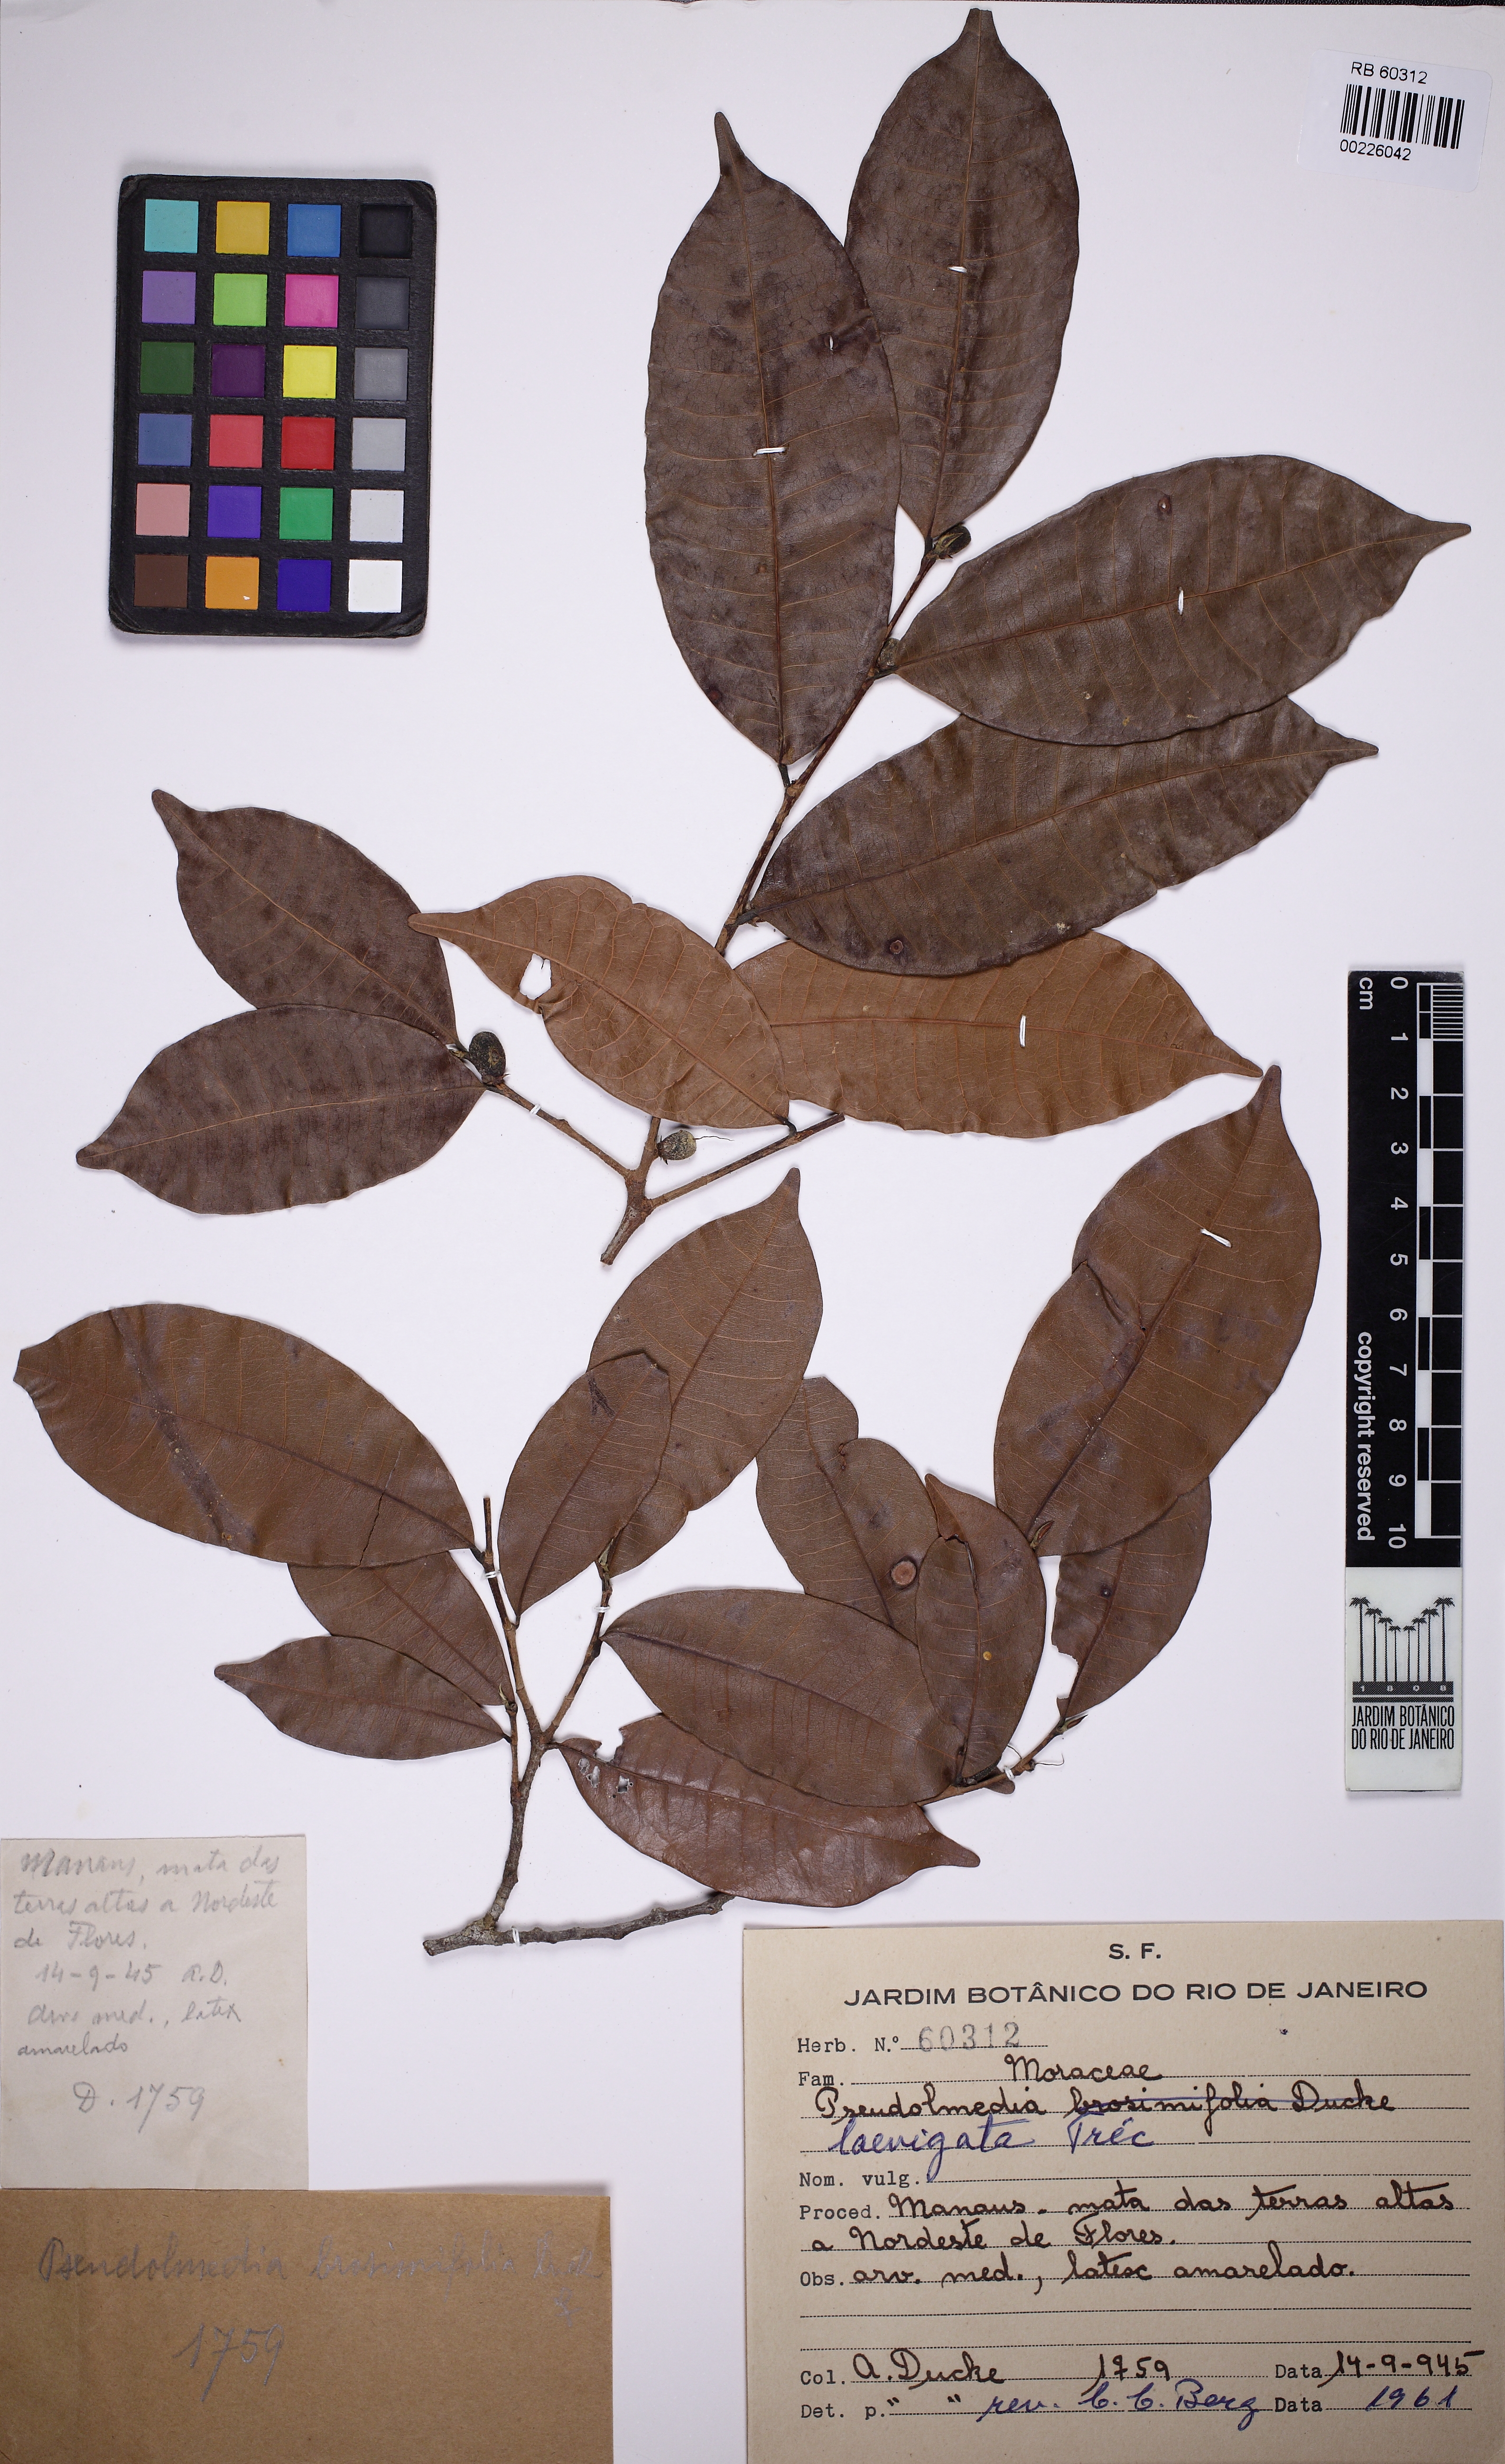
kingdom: Plantae
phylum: Tracheophyta
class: Magnoliopsida
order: Rosales
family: Moraceae
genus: Pseudolmedia
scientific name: Pseudolmedia laevigata
